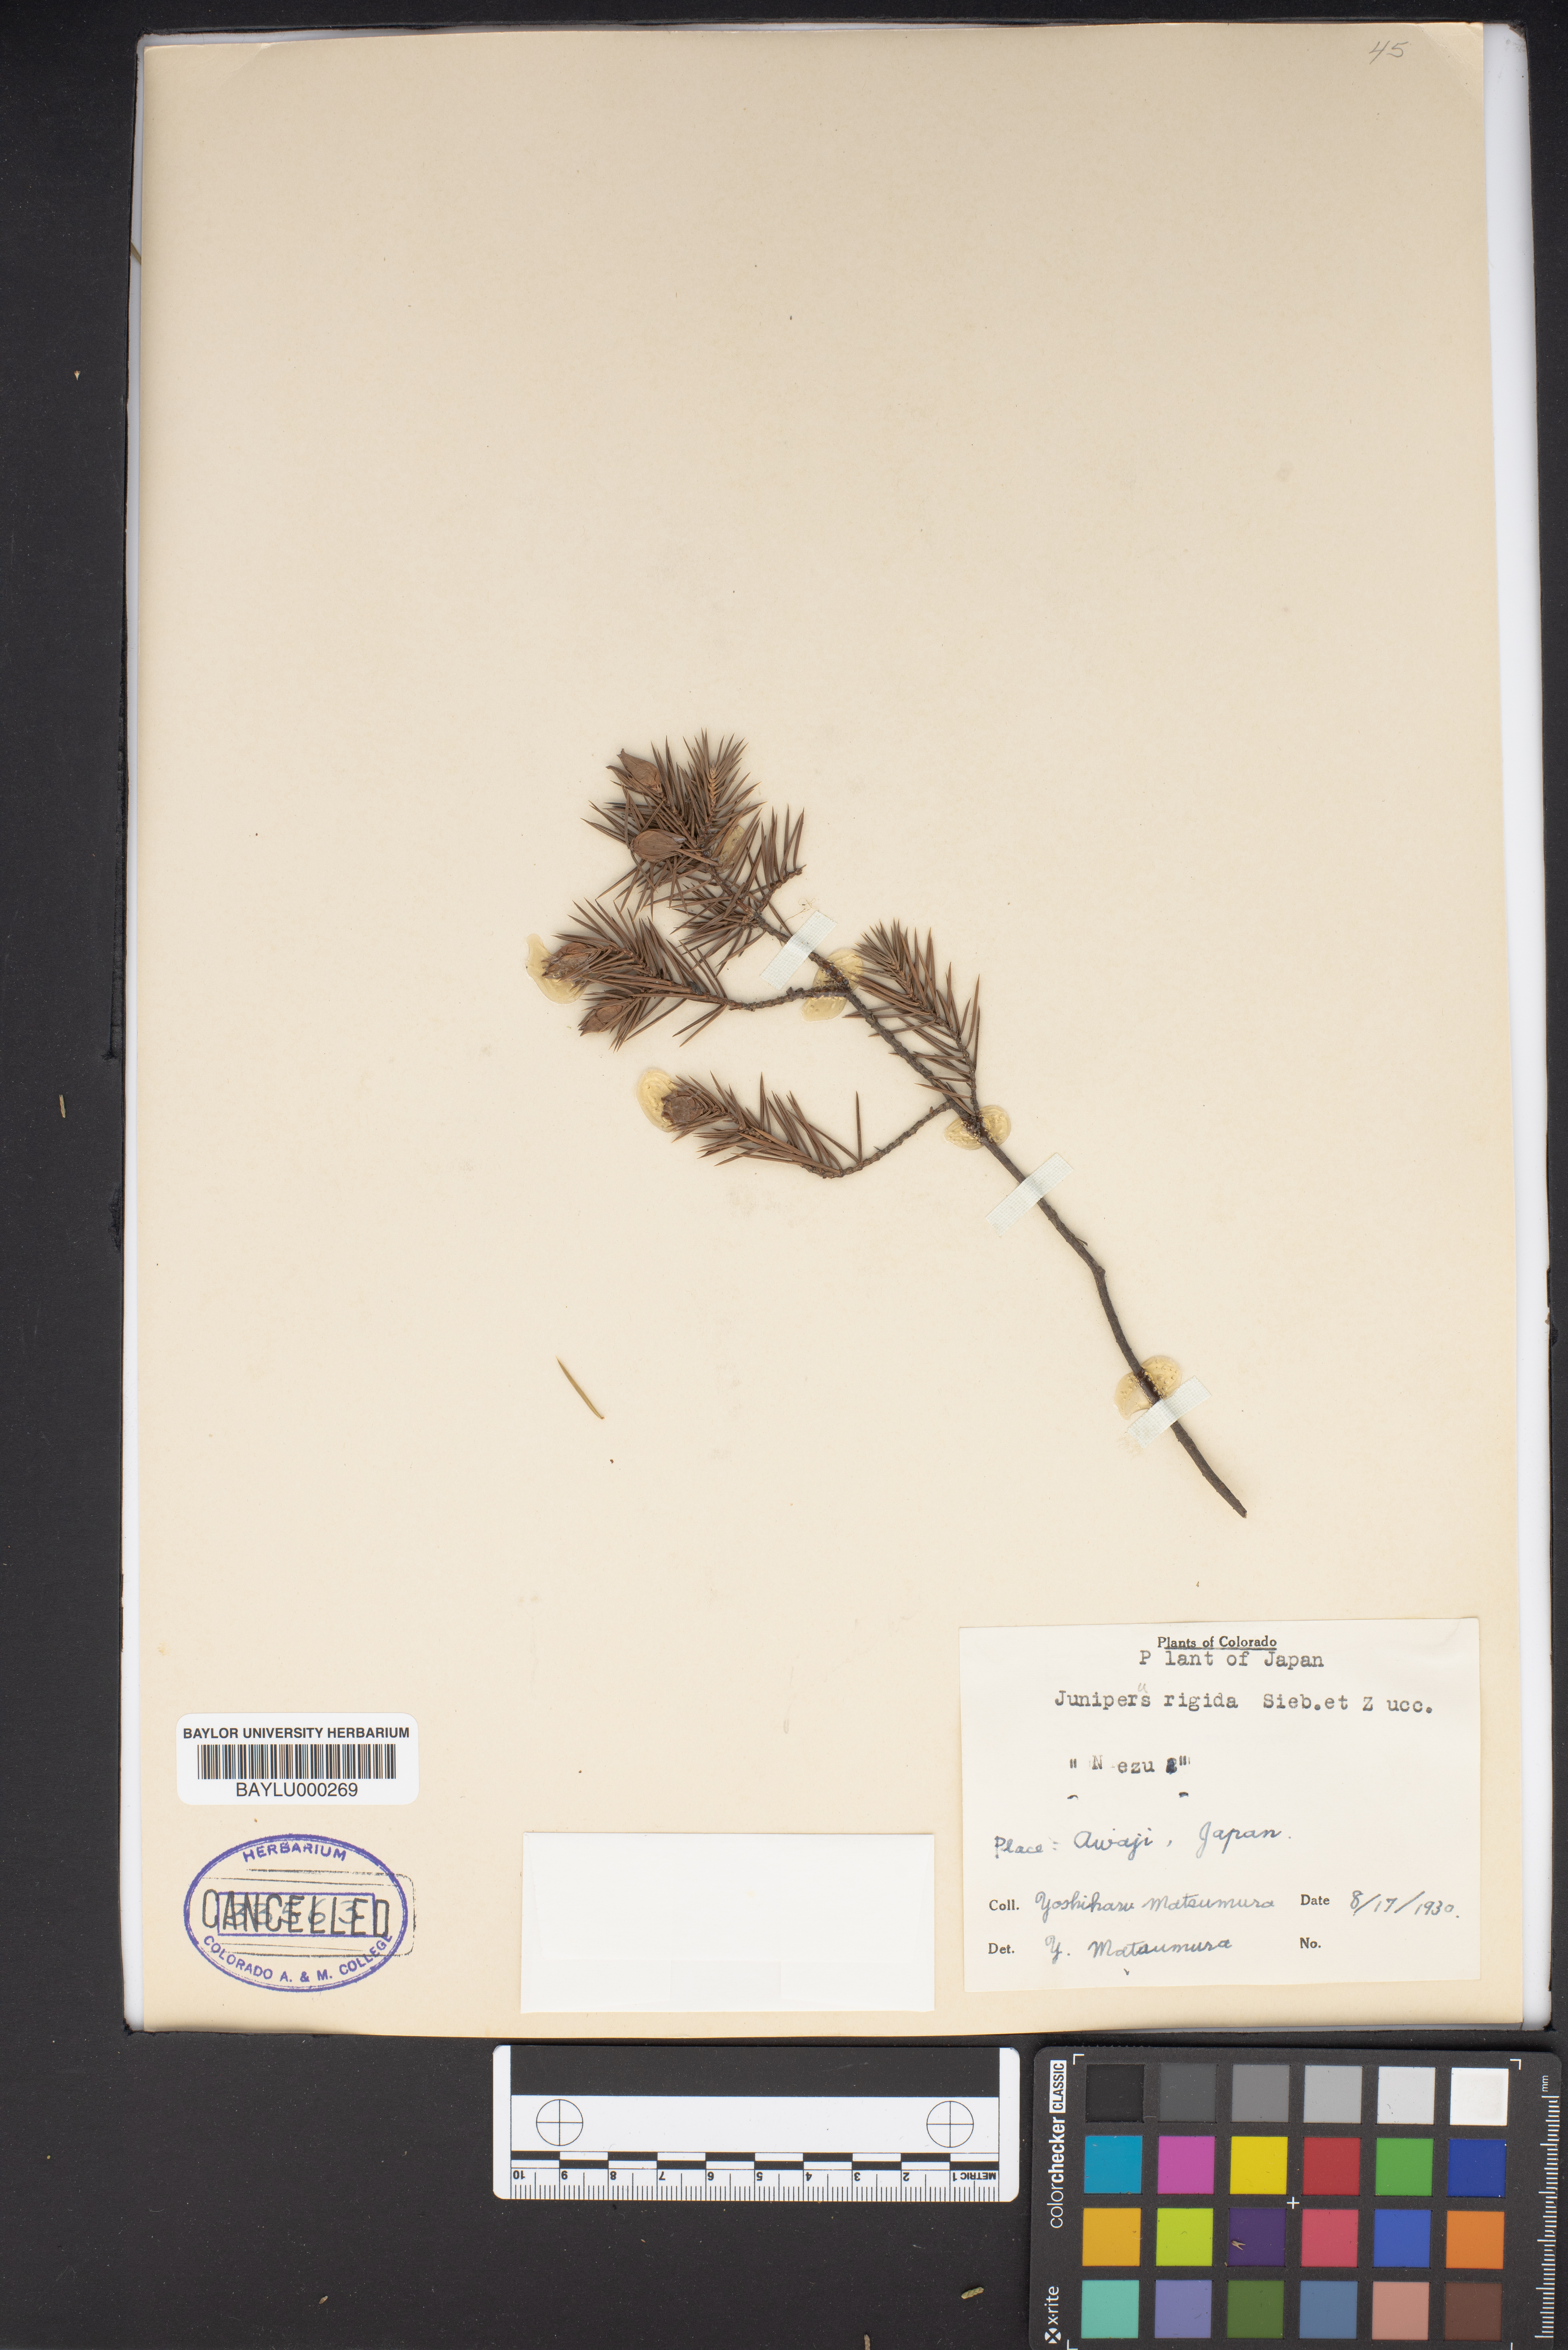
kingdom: Plantae
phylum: Tracheophyta
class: Pinopsida
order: Pinales
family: Cupressaceae
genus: Juniperus
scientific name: Juniperus rigida
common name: Needle juniper
